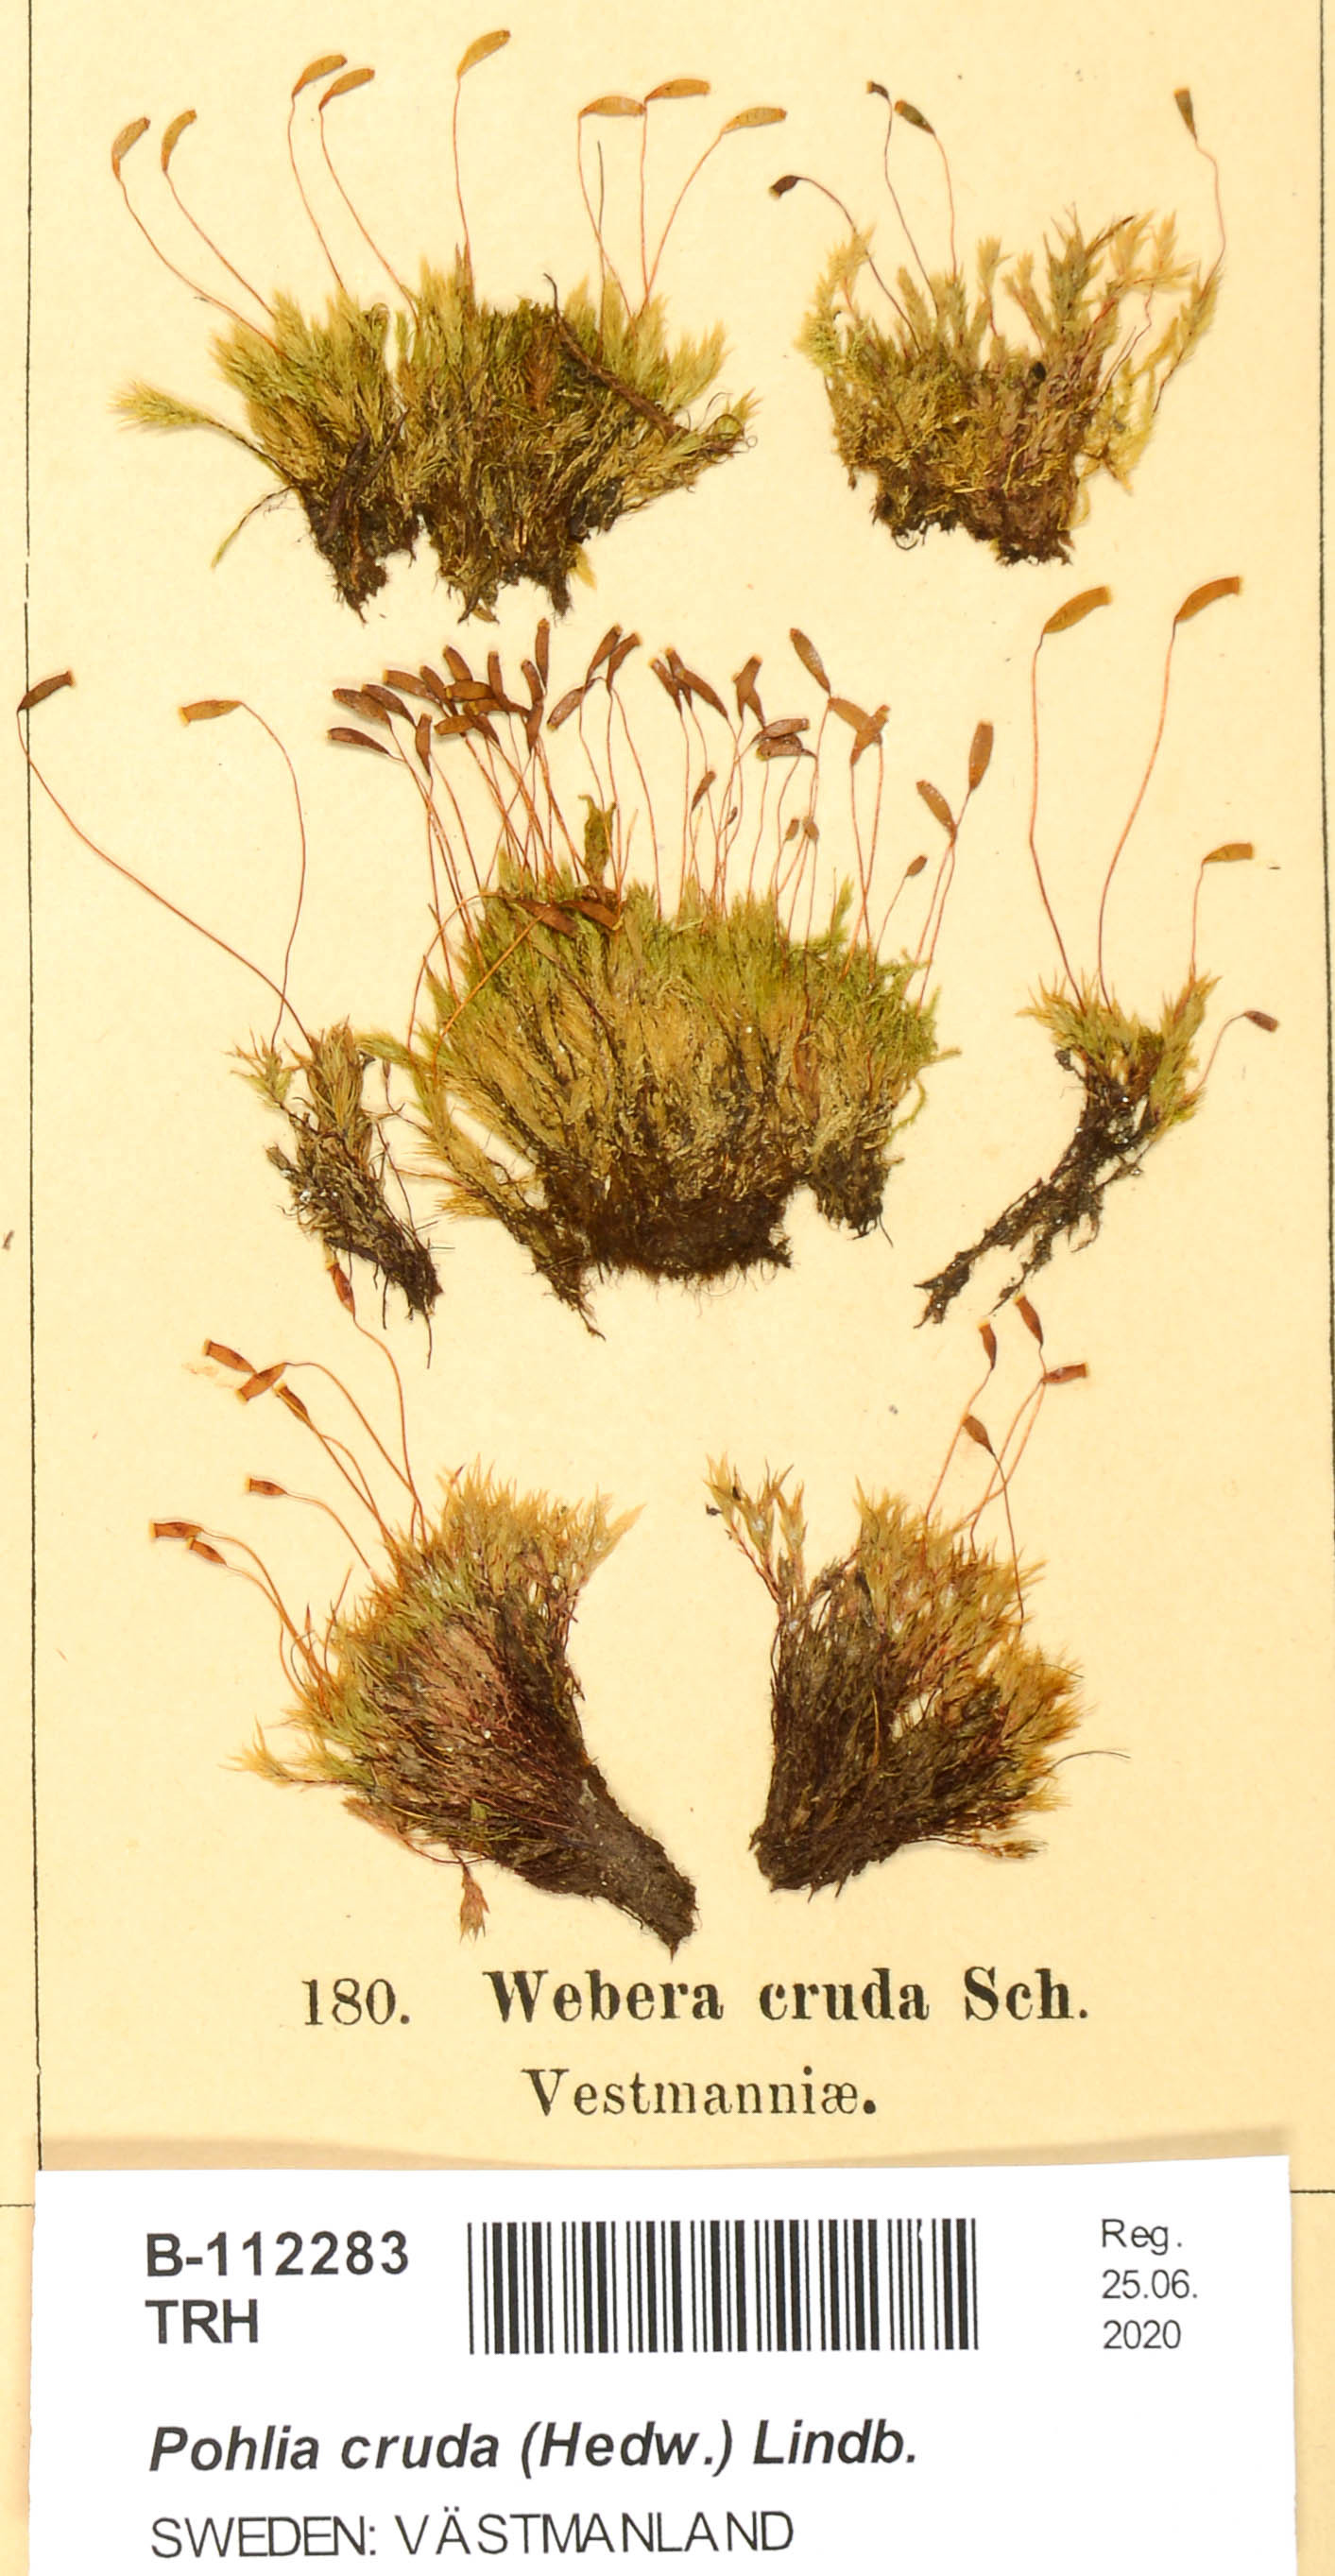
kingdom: Plantae
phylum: Bryophyta
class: Bryopsida
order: Bryales
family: Mniaceae
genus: Pohlia
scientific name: Pohlia cruda
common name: Opal nodding moss
